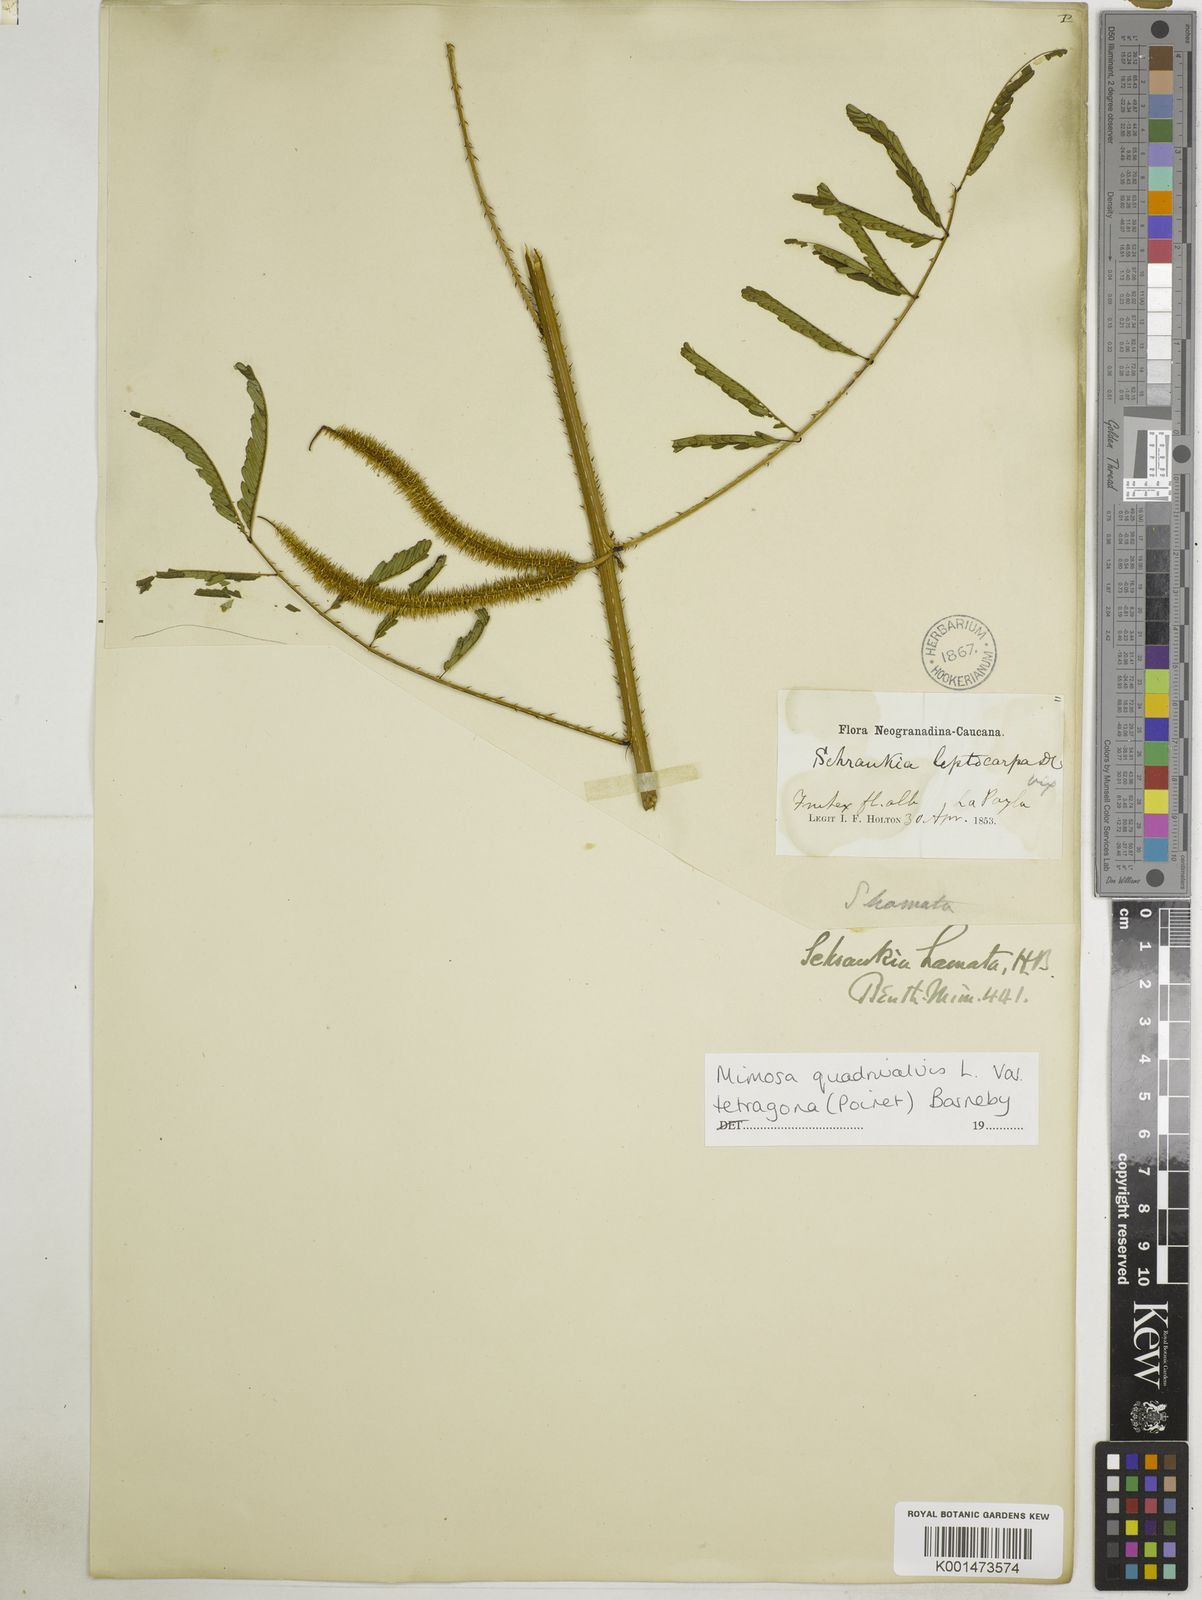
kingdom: Plantae
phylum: Tracheophyta
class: Magnoliopsida
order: Fabales
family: Fabaceae
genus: Mimosa
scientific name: Mimosa tetragona
